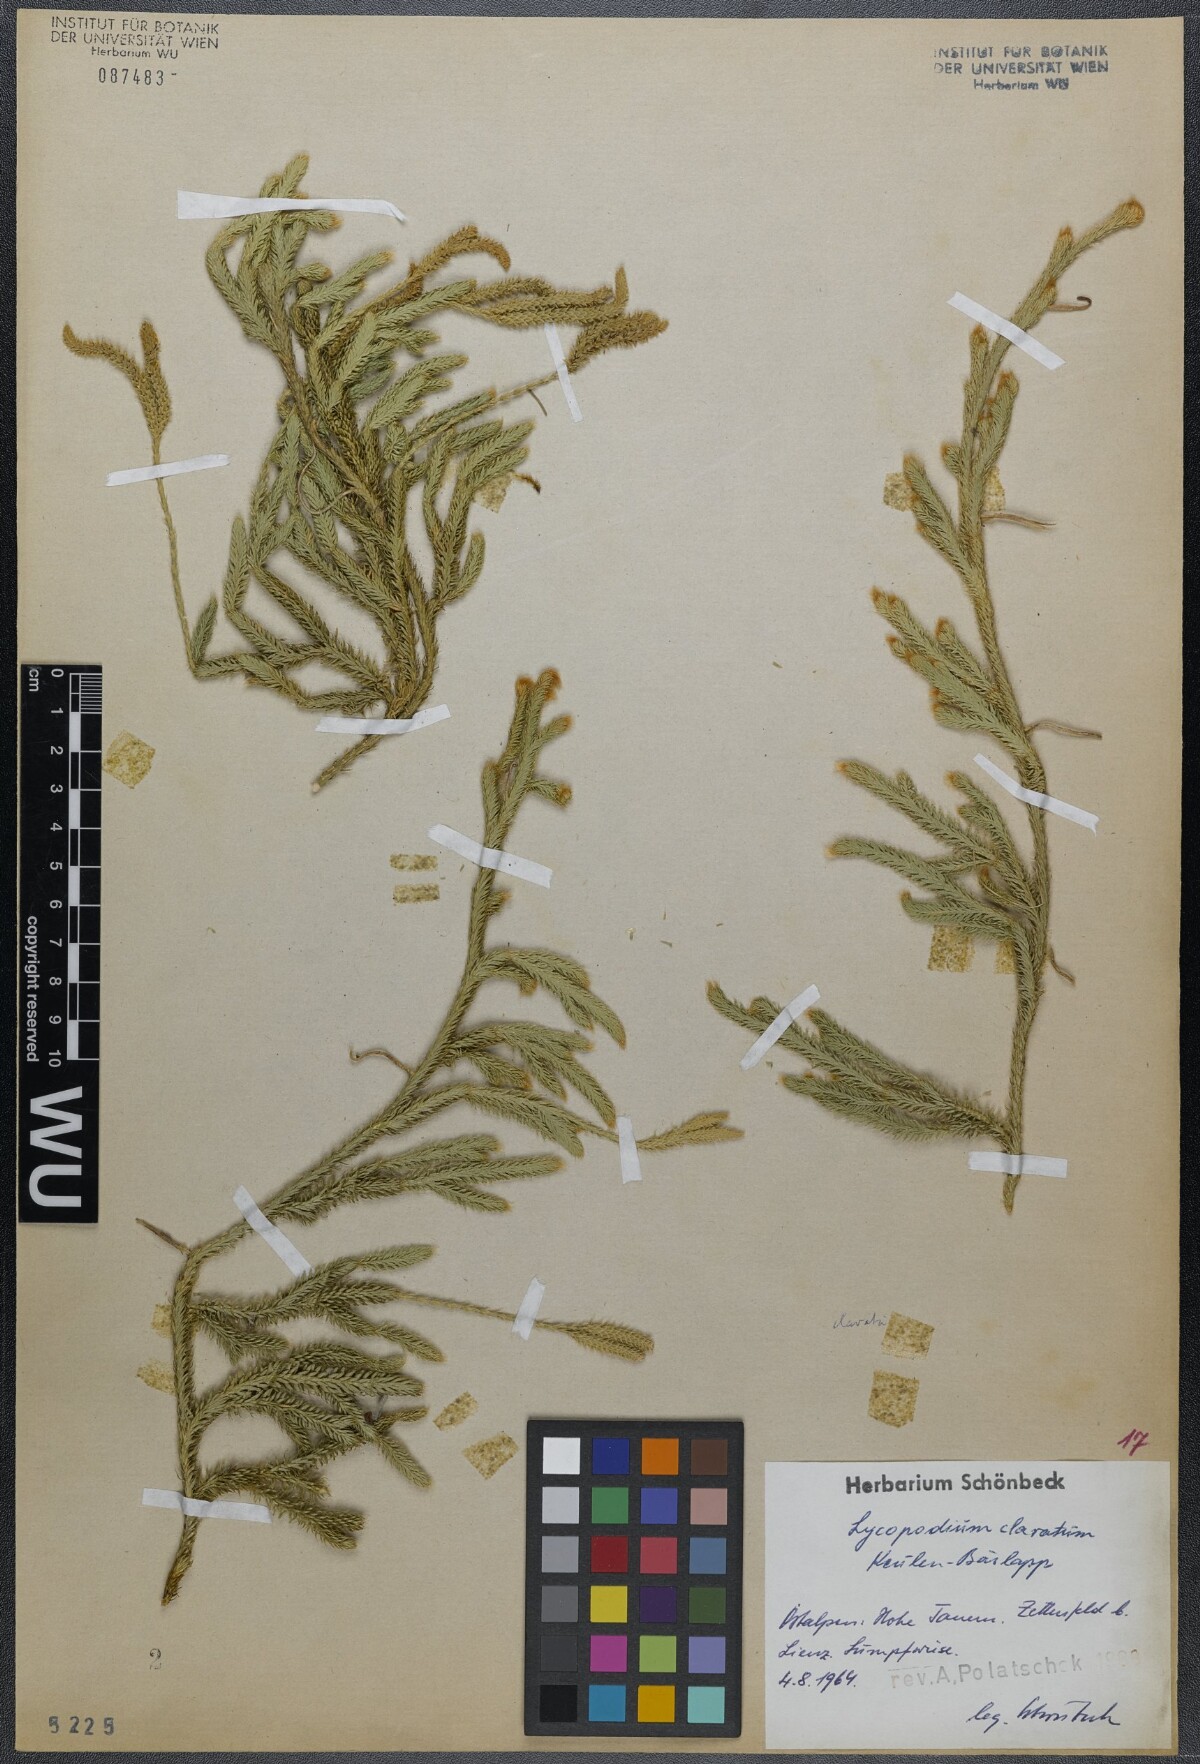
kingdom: Plantae
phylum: Tracheophyta
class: Lycopodiopsida
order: Lycopodiales
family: Lycopodiaceae
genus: Lycopodium
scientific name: Lycopodium clavatum
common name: Stag's-horn clubmoss
